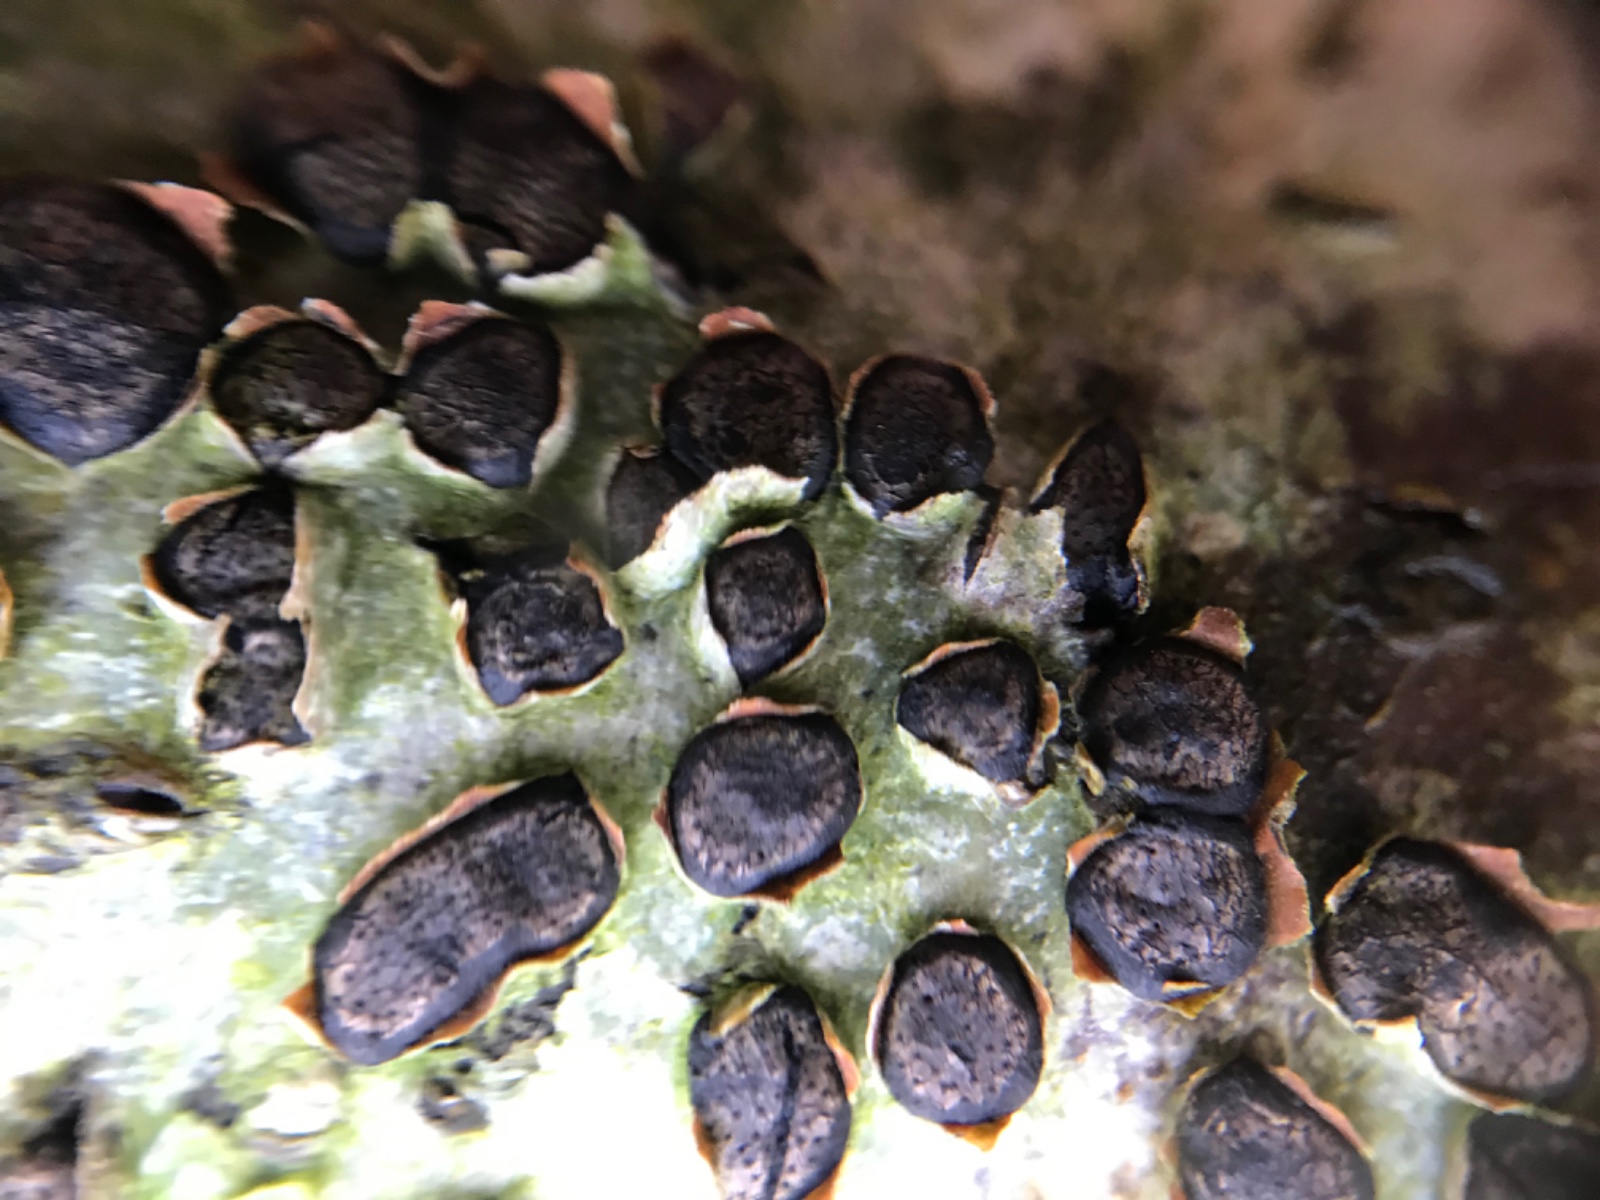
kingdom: Fungi
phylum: Ascomycota
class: Sordariomycetes
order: Xylariales
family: Diatrypaceae
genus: Diatrype
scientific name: Diatrype disciformis
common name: kant-kulskorpe
